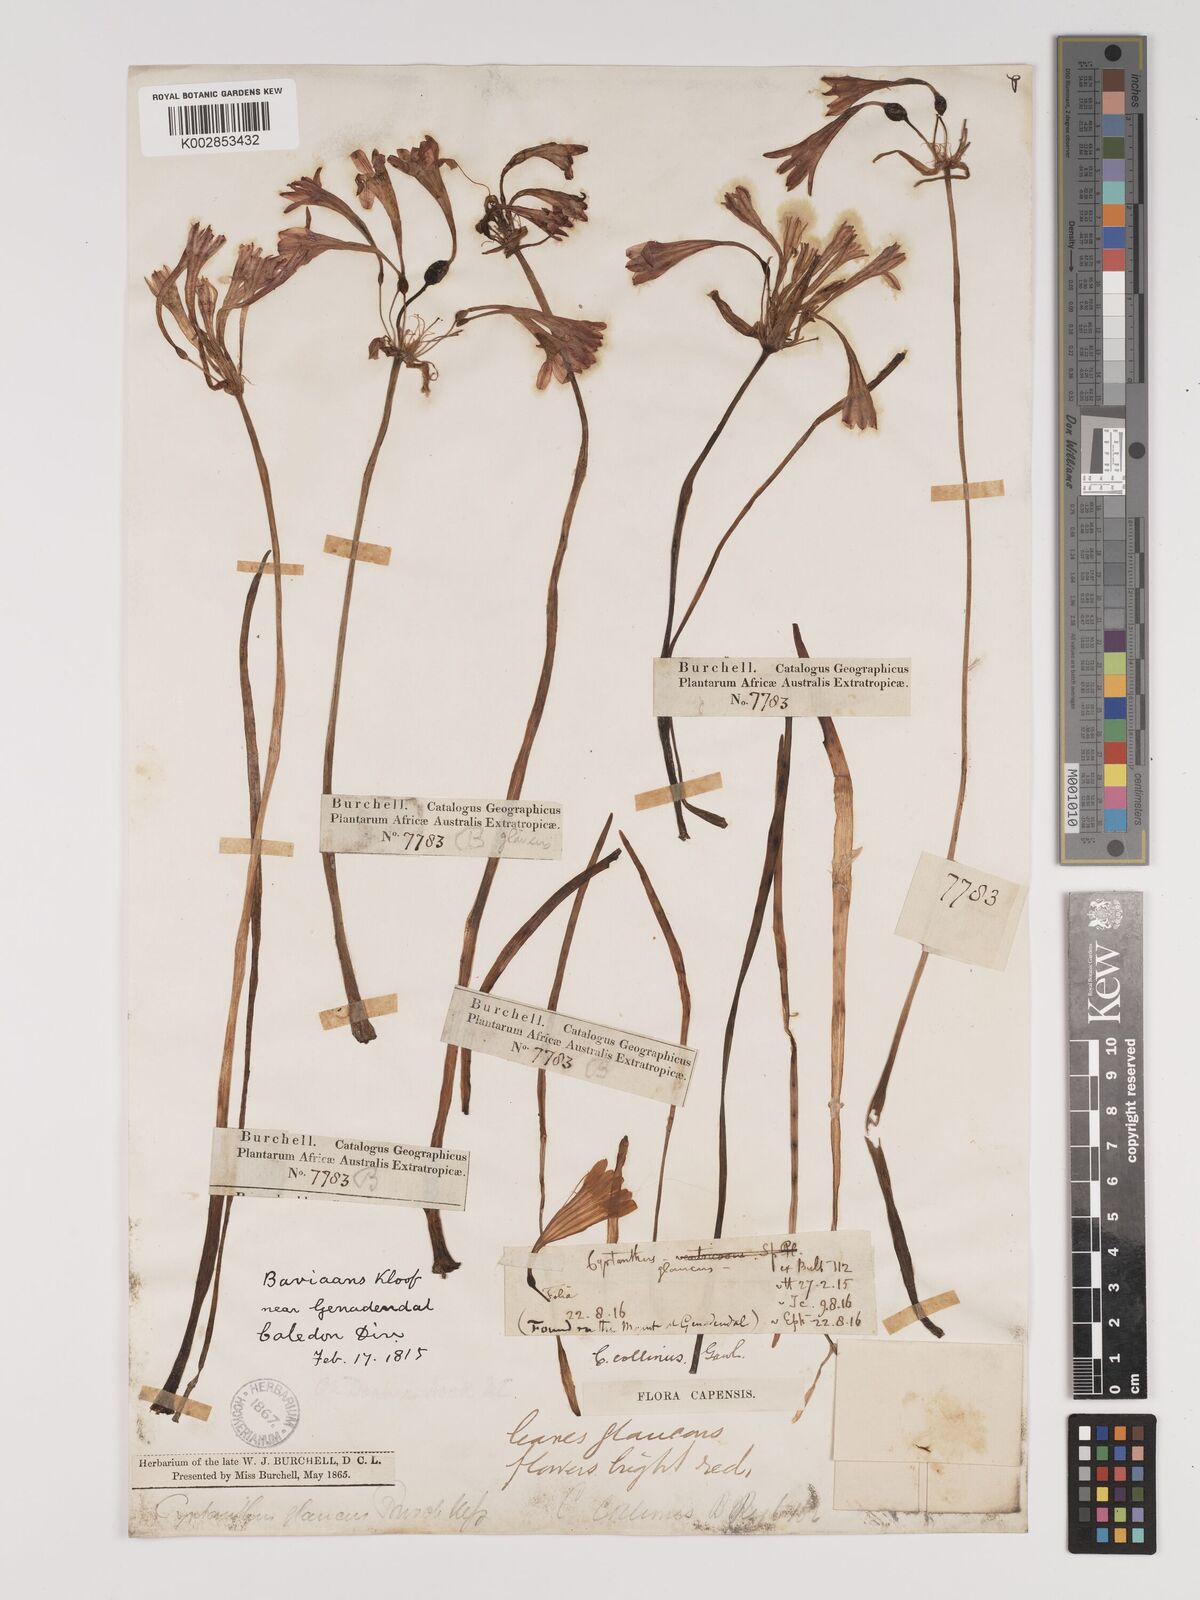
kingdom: Plantae
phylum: Tracheophyta
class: Liliopsida
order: Asparagales
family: Amaryllidaceae
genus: Cyrtanthus
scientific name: Cyrtanthus collinus
